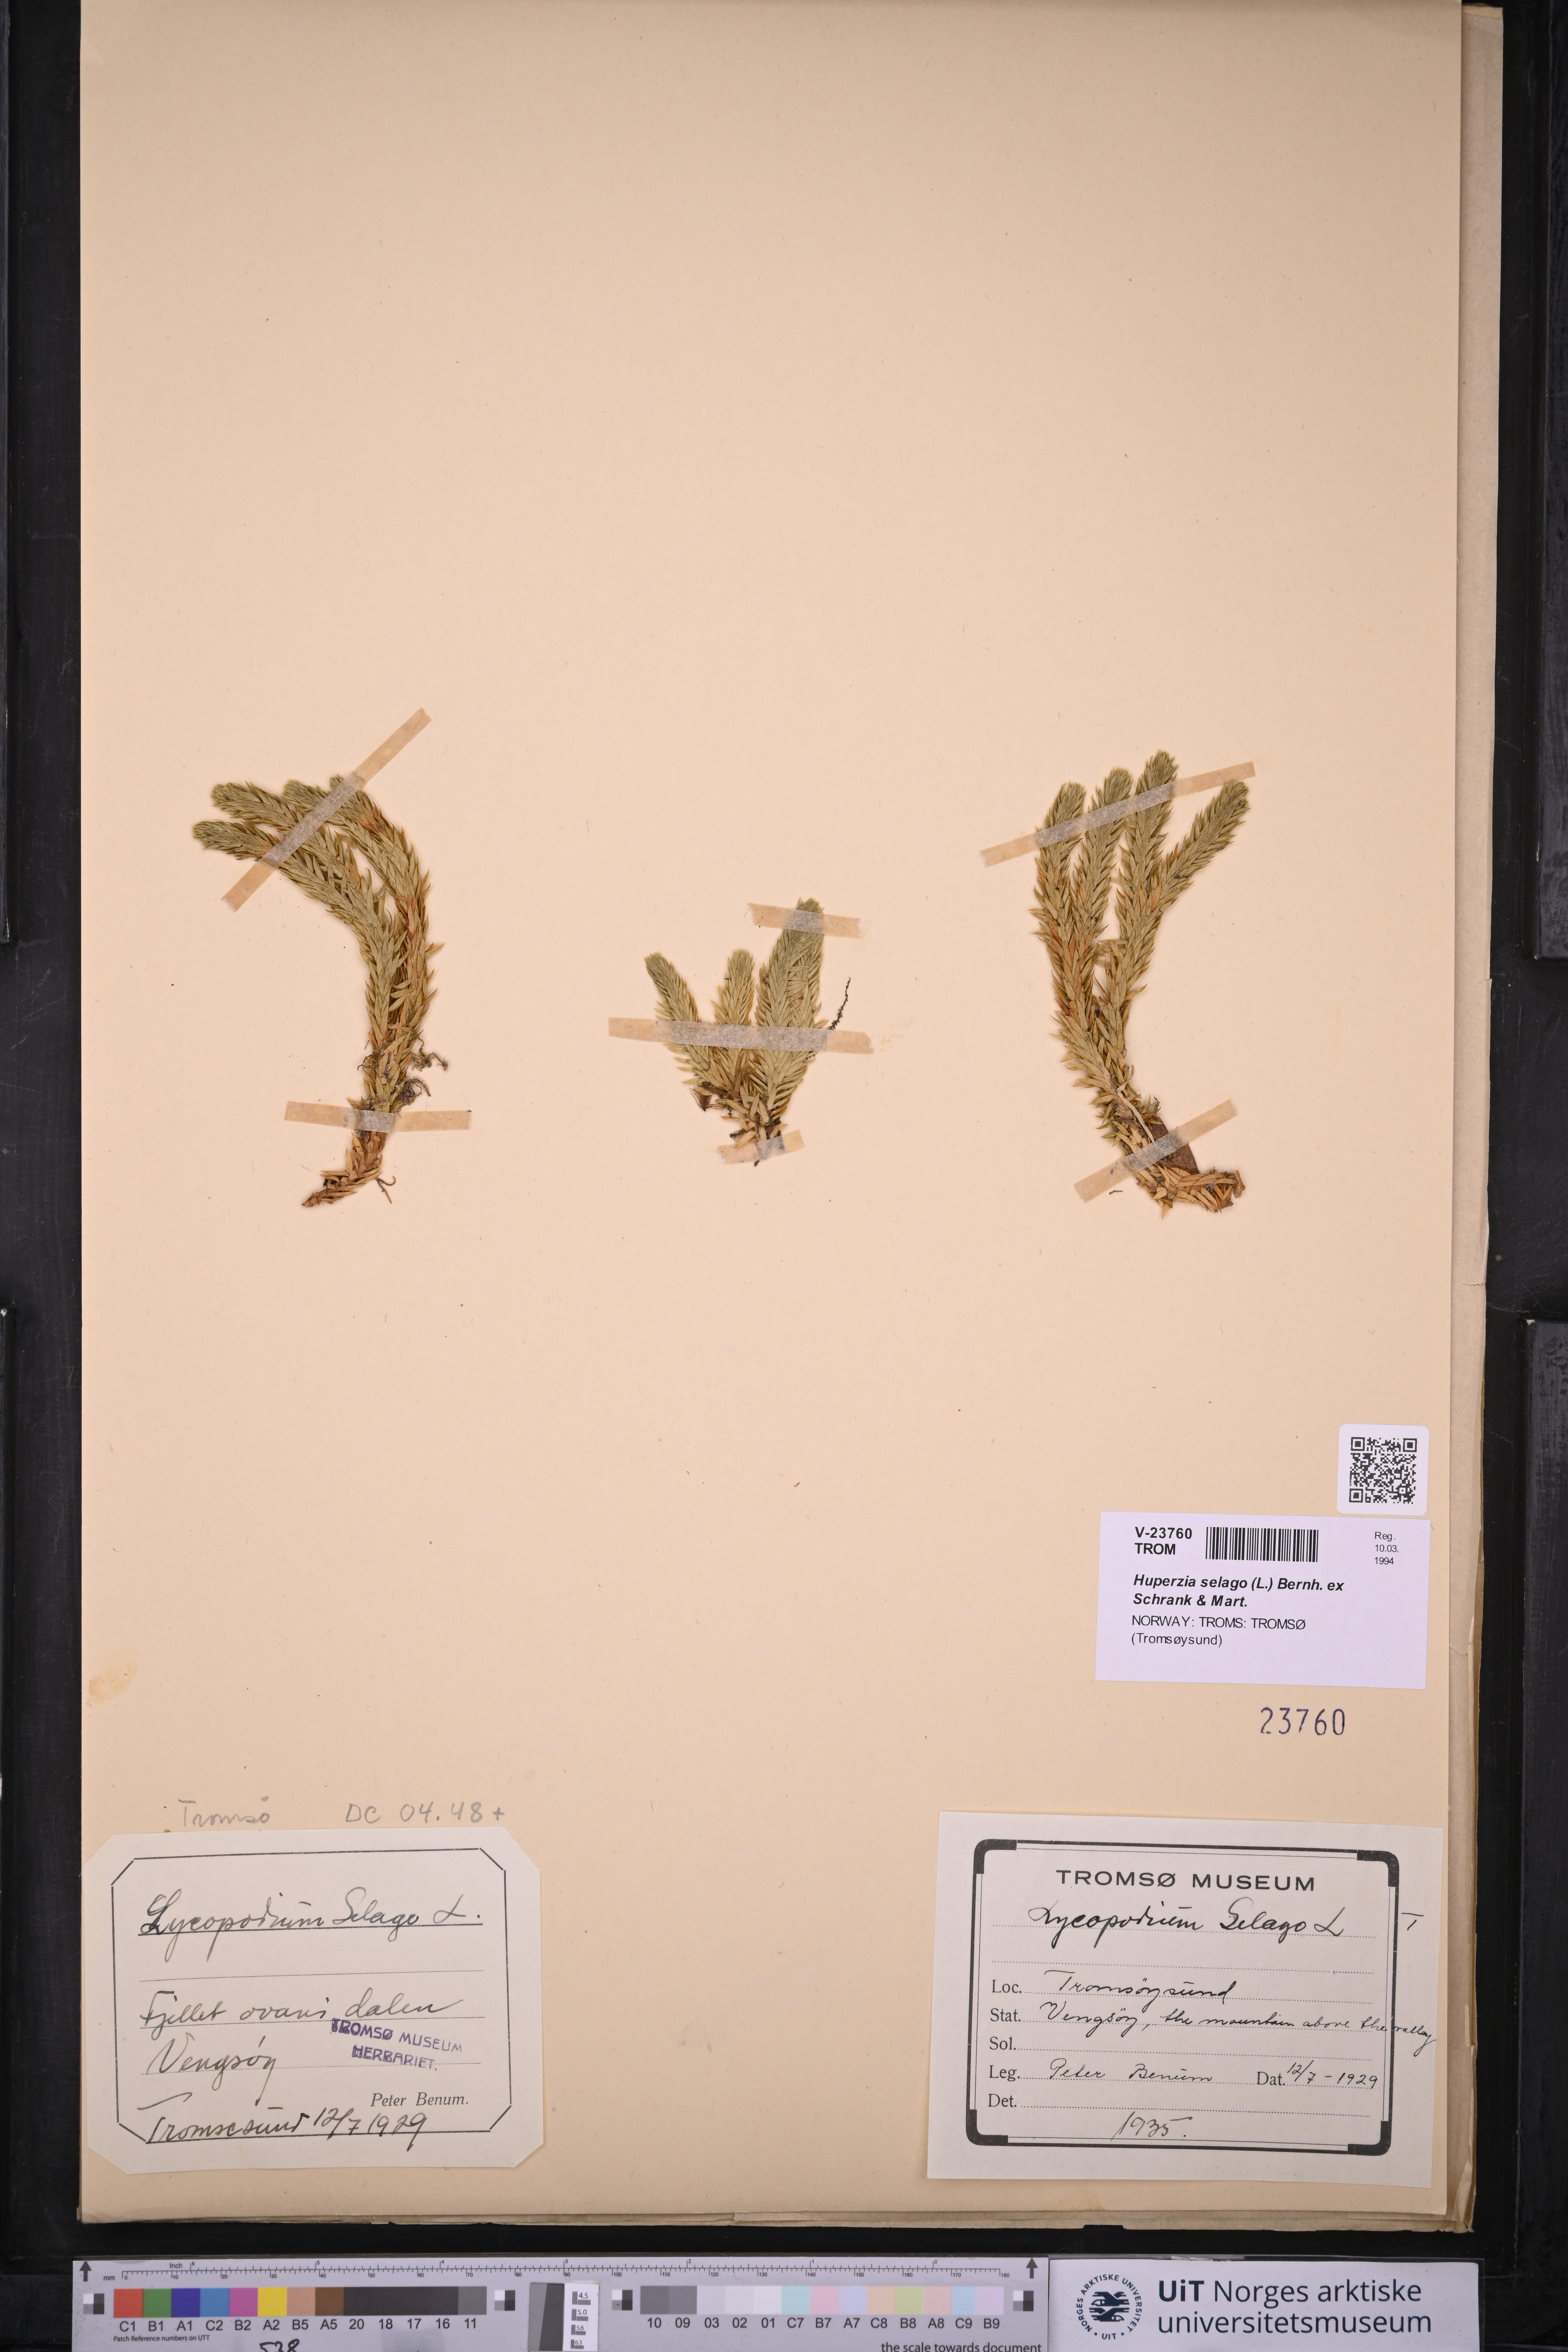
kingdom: Plantae
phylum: Tracheophyta
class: Lycopodiopsida
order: Lycopodiales
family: Lycopodiaceae
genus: Huperzia
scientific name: Huperzia selago
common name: Northern firmoss
